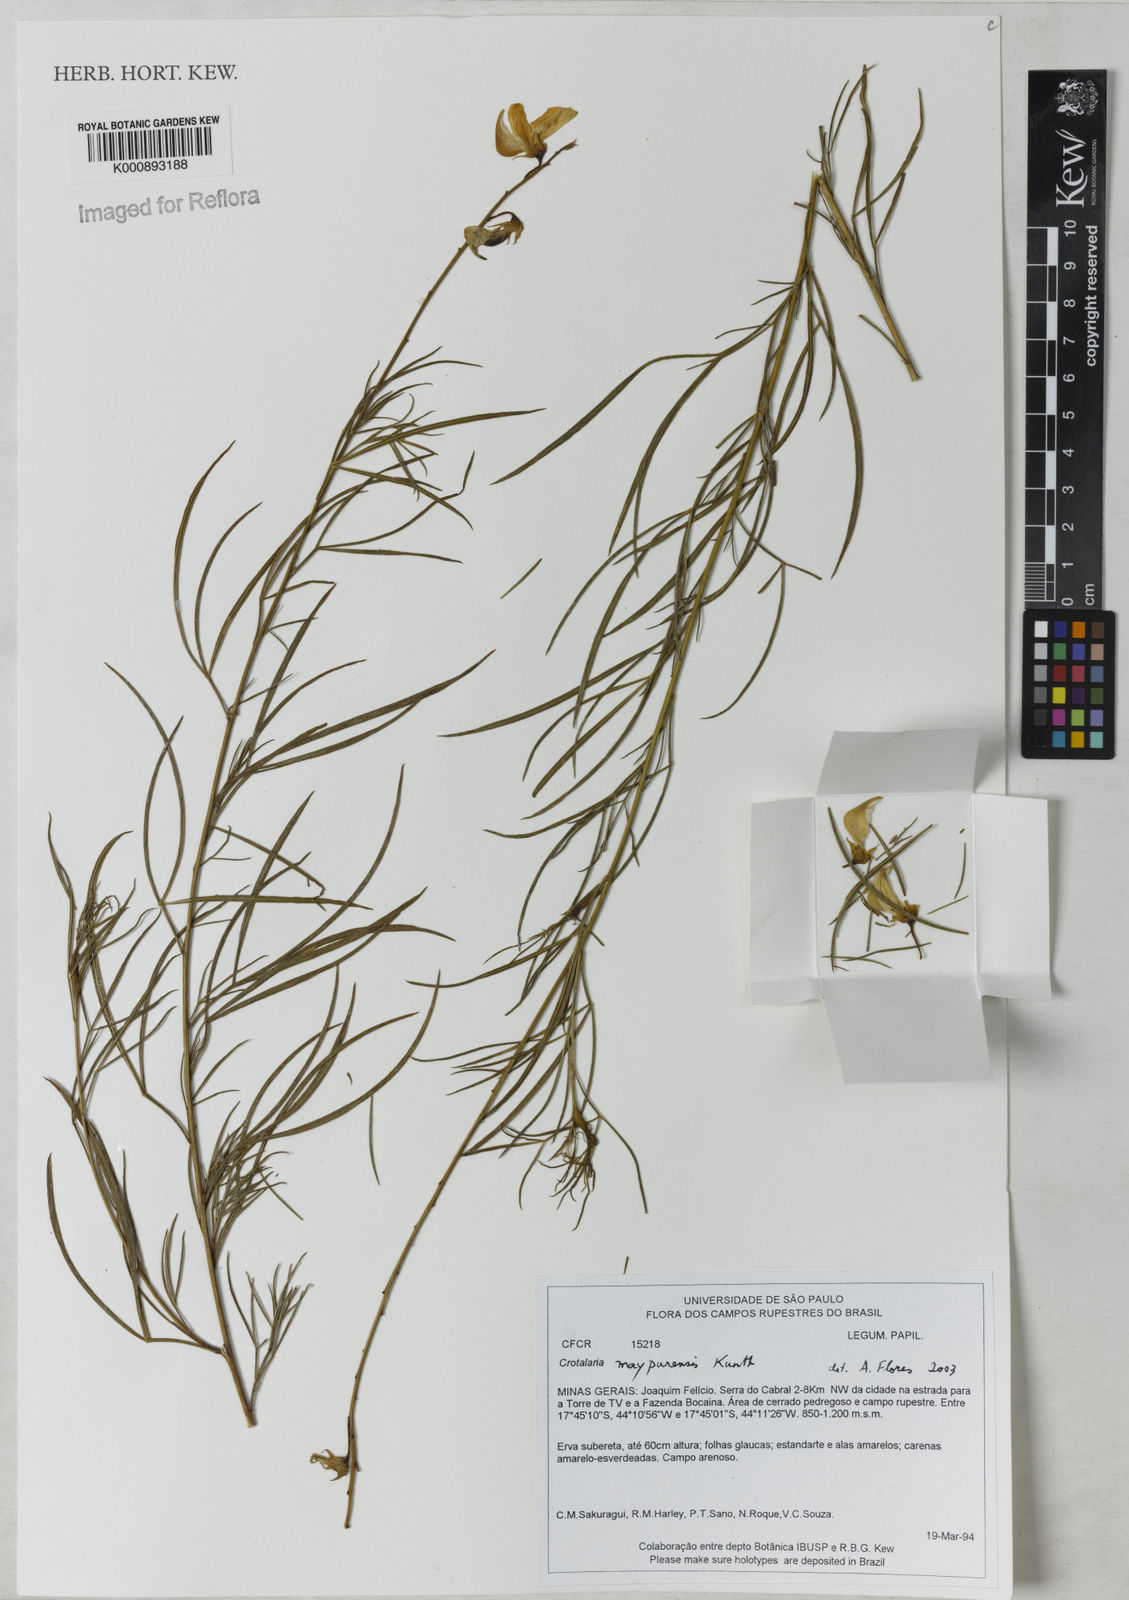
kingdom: Plantae
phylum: Tracheophyta
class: Magnoliopsida
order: Fabales
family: Fabaceae
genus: Crotalaria
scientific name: Crotalaria maypurensis
